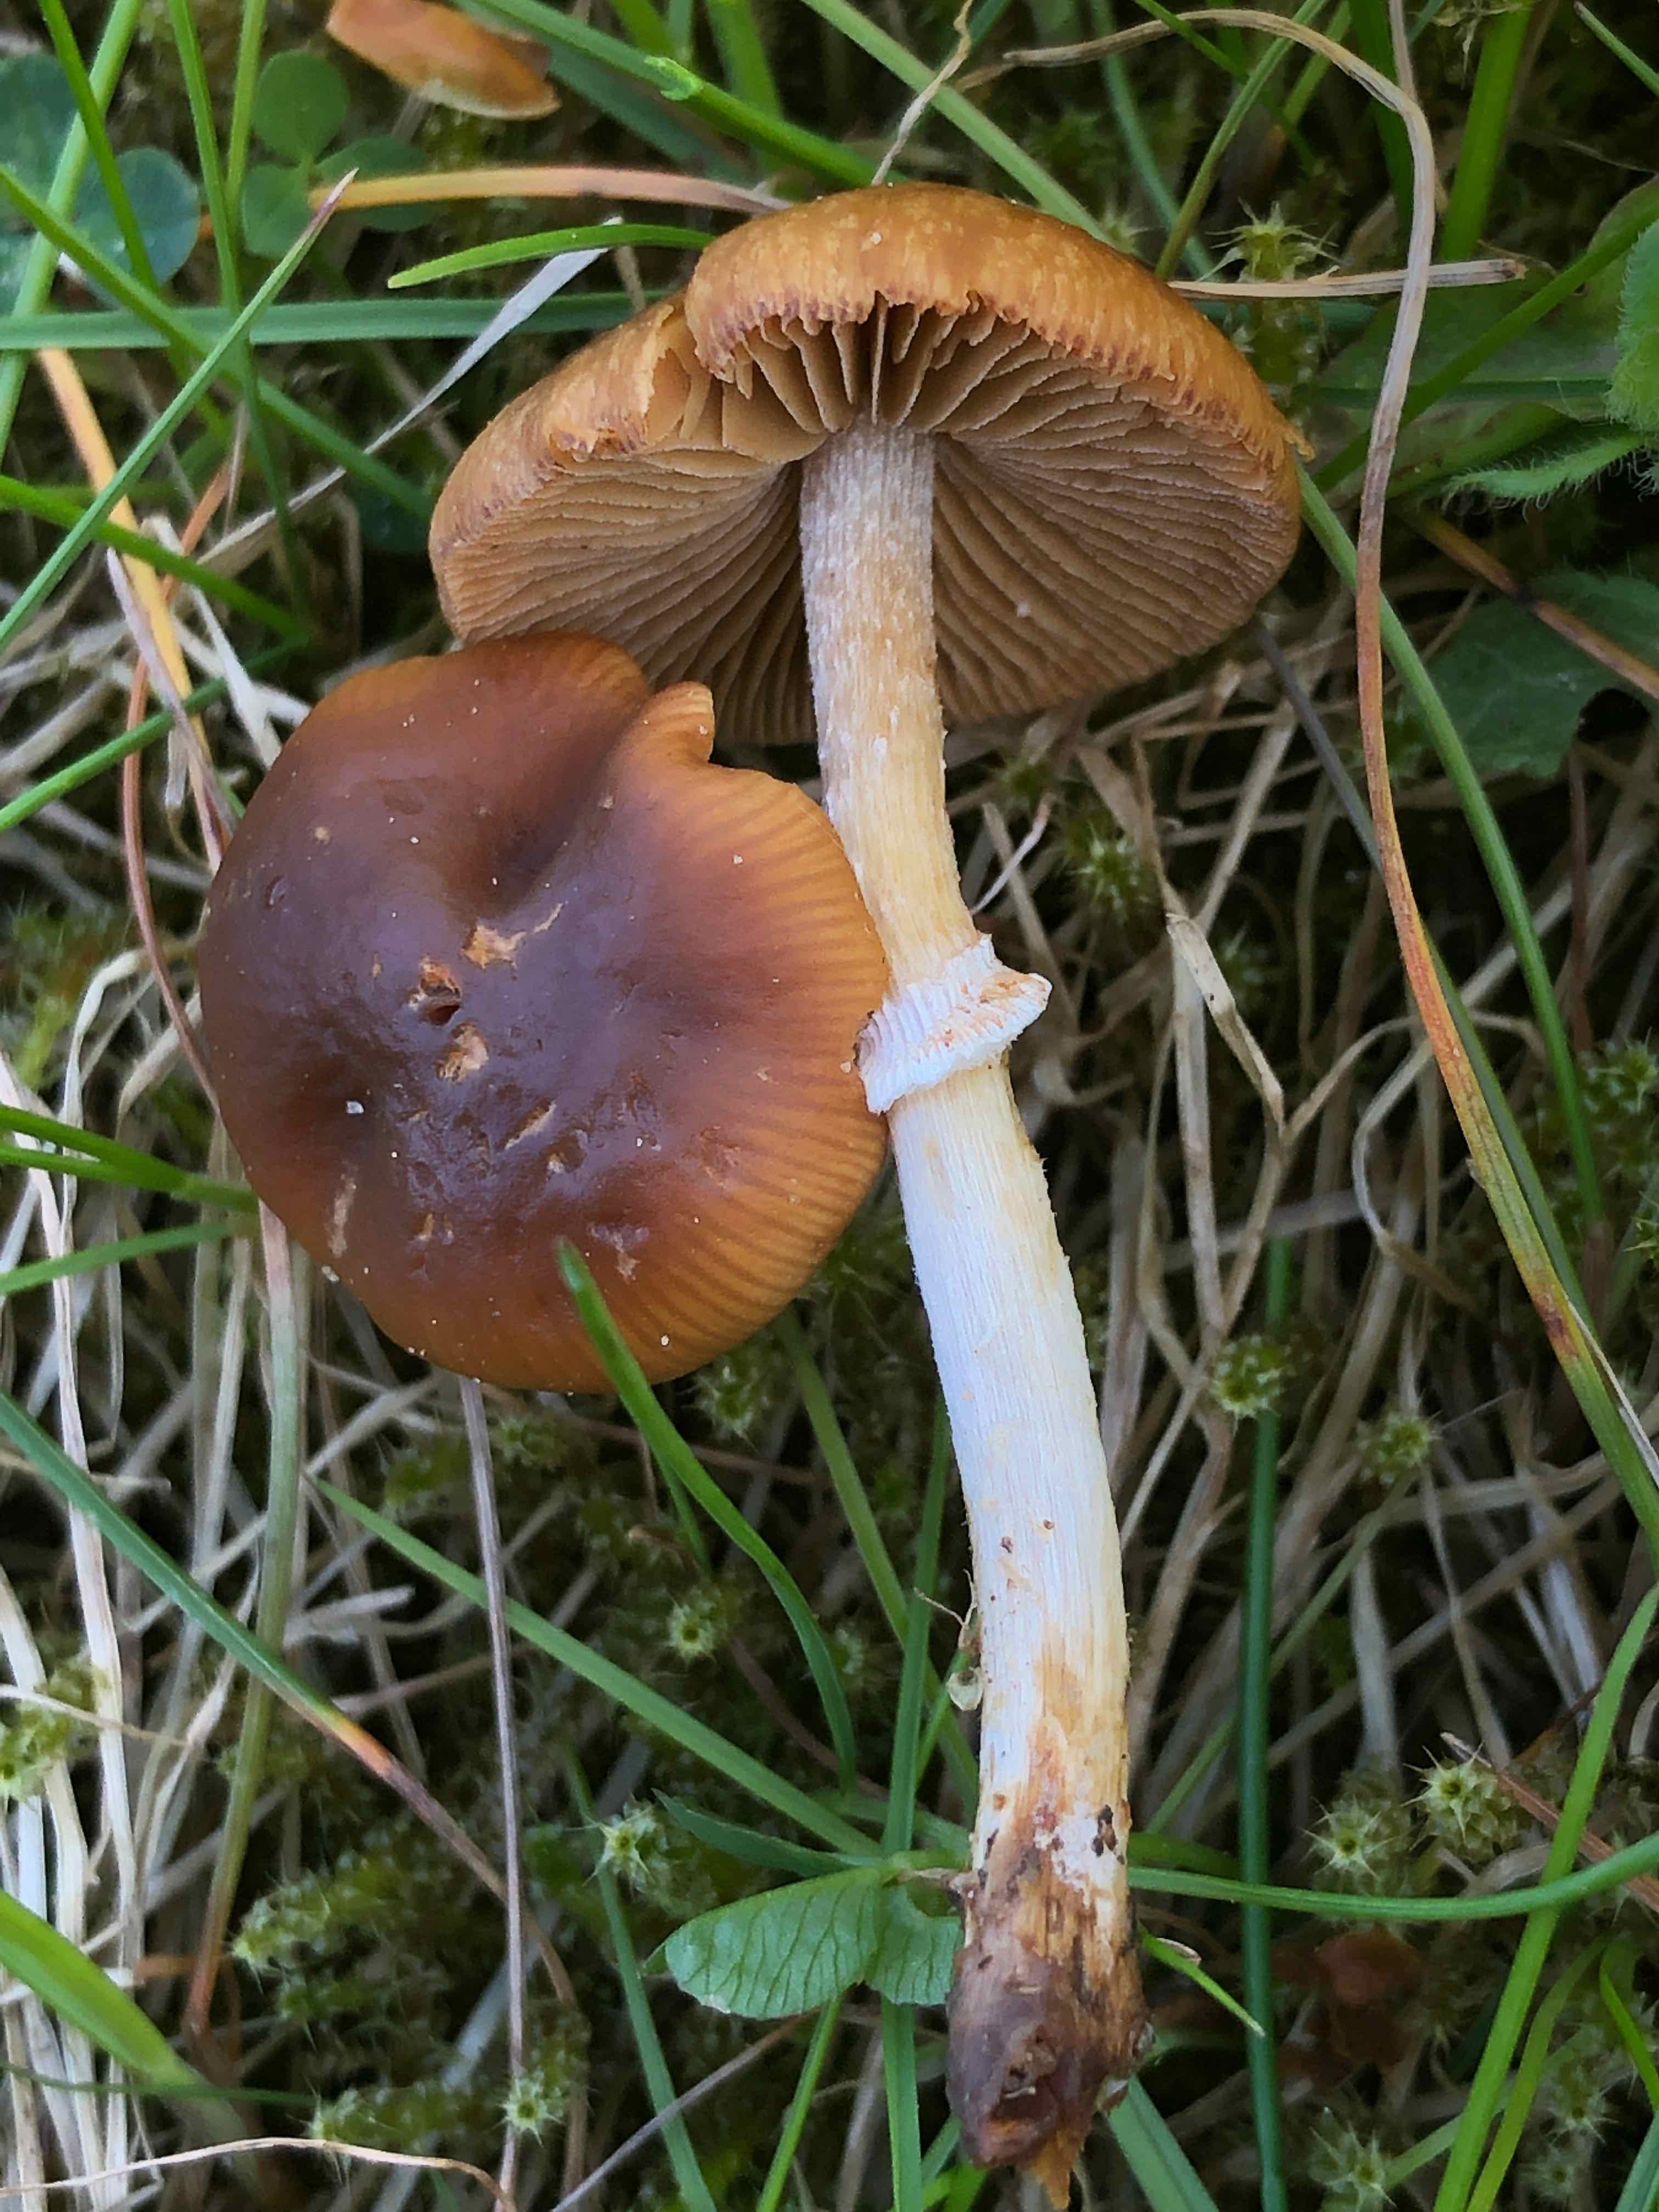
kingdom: Fungi
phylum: Basidiomycota
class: Agaricomycetes
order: Agaricales
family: Bolbitiaceae
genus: Conocybe
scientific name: Conocybe aporos
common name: tidlig dansehat
